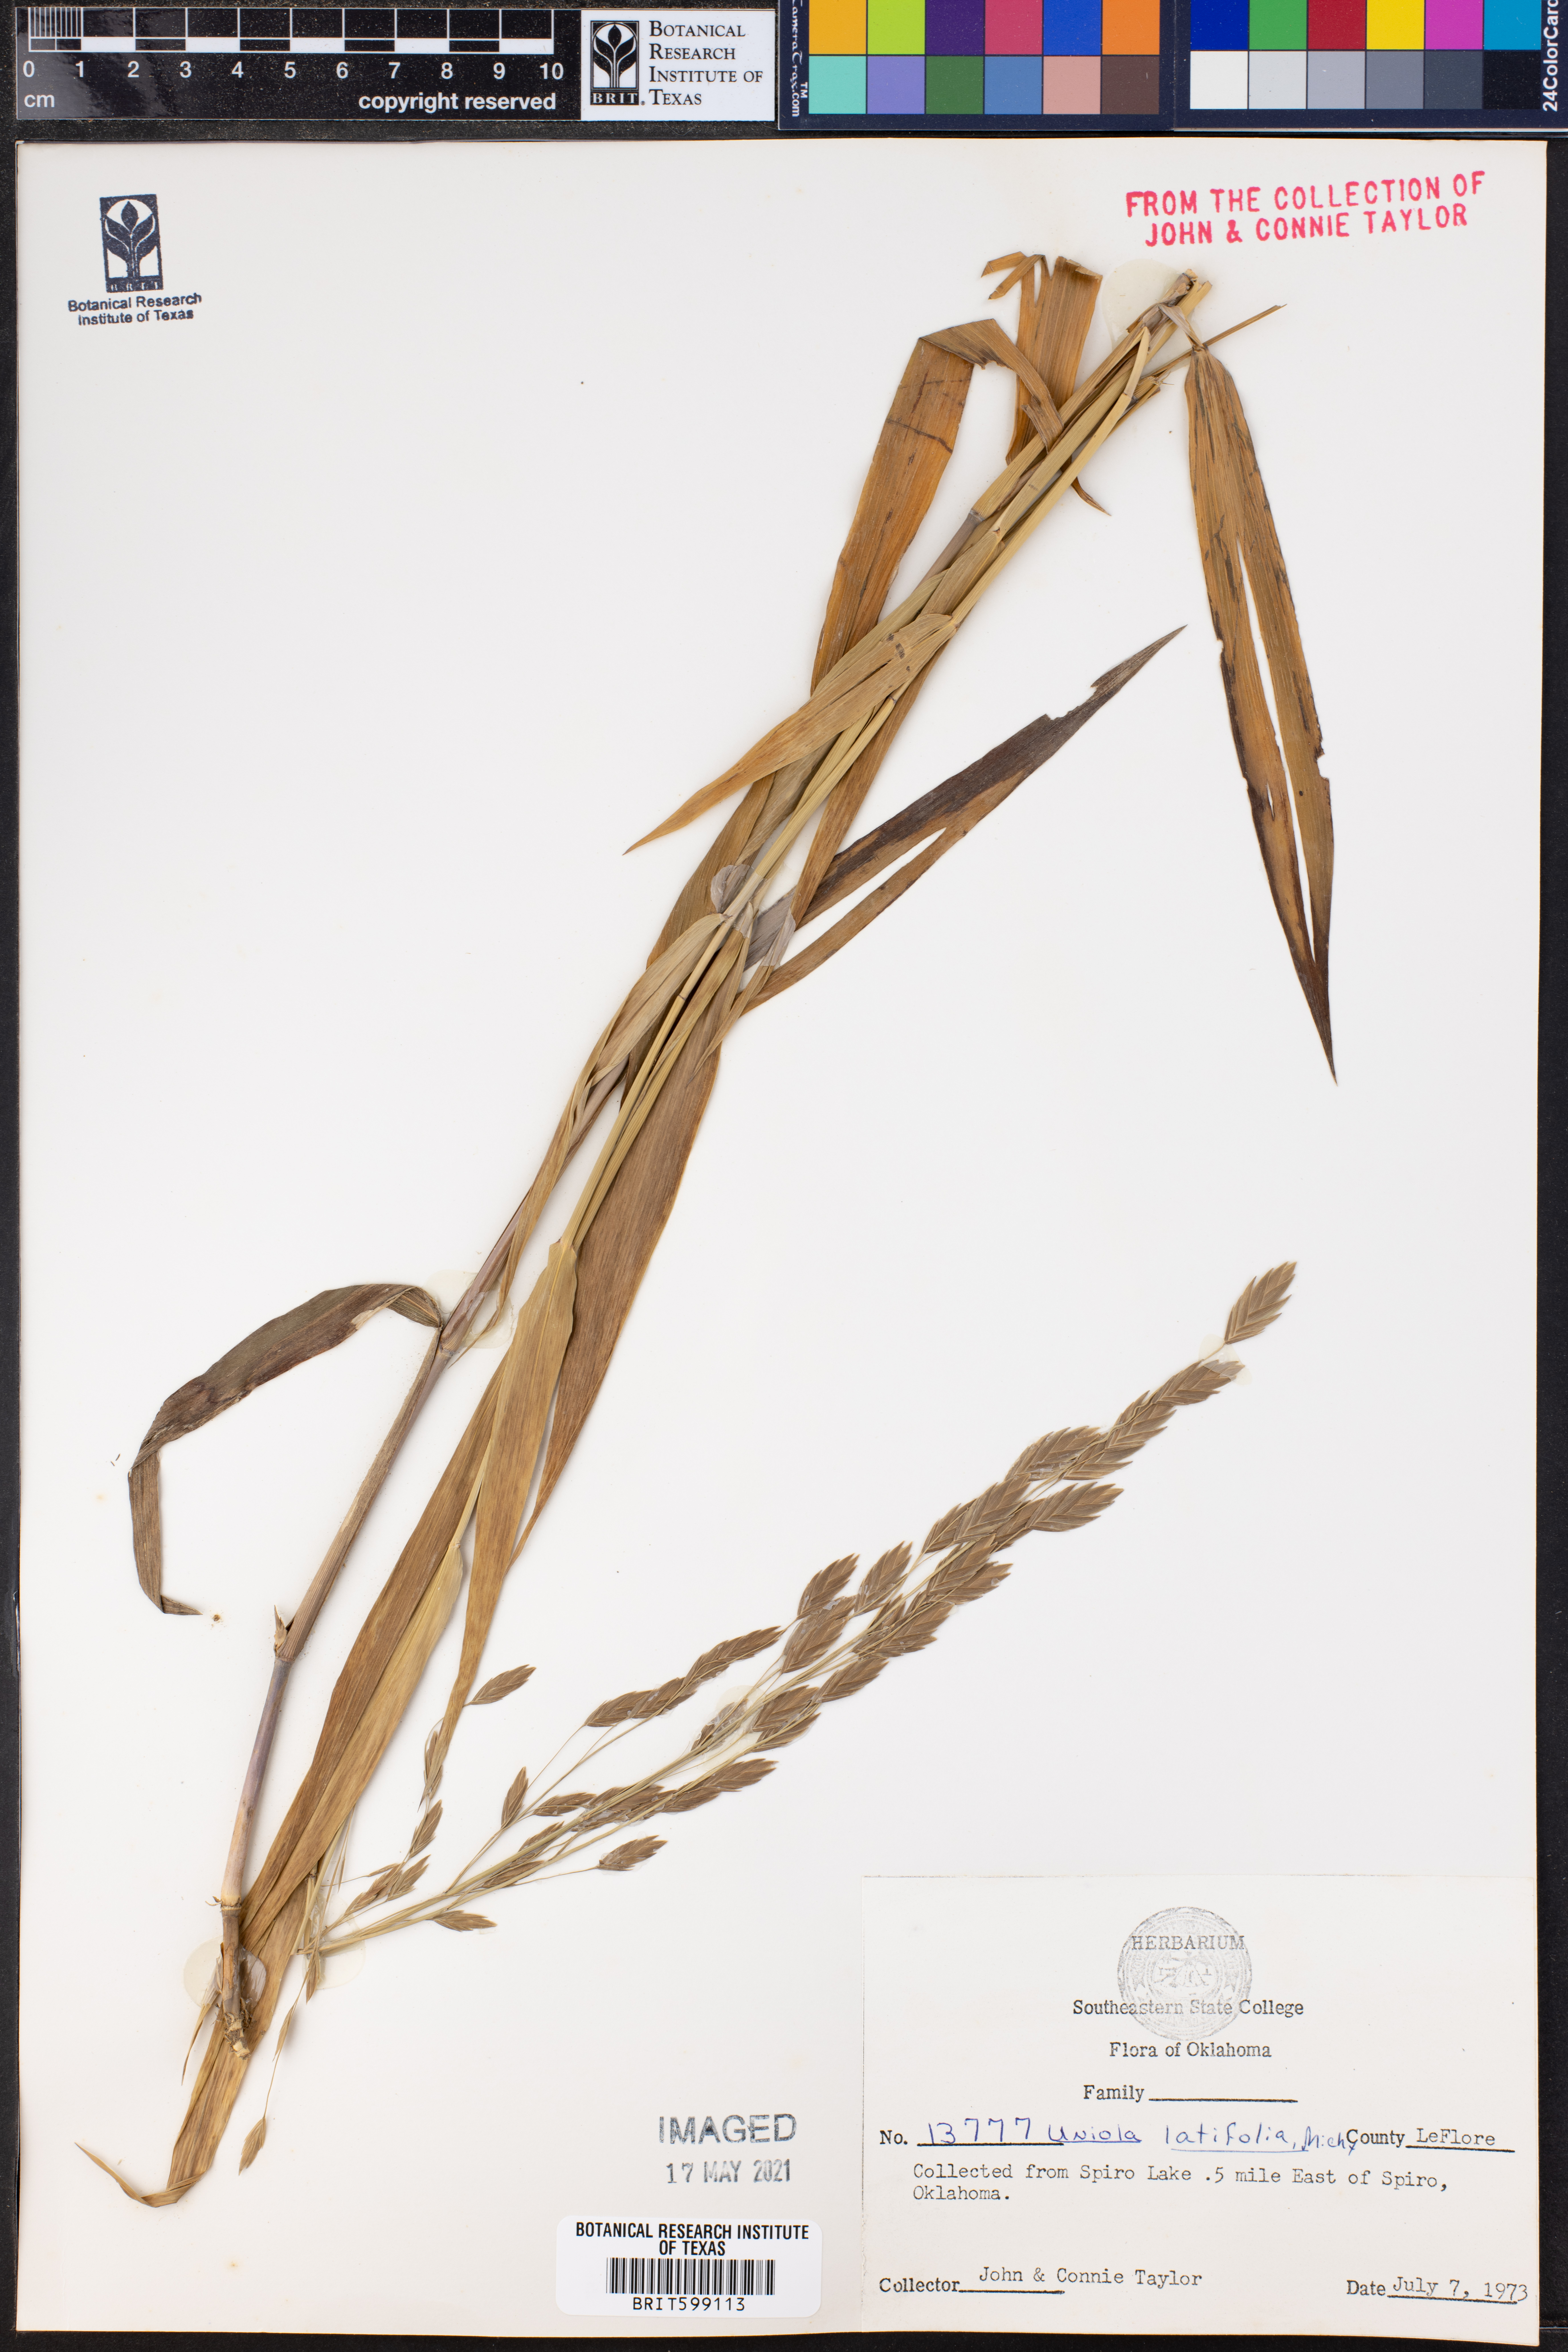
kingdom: Plantae
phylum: Tracheophyta
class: Liliopsida
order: Poales
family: Poaceae
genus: Chasmanthium
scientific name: Chasmanthium latifolium
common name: Broad-leaved chasmanthium
